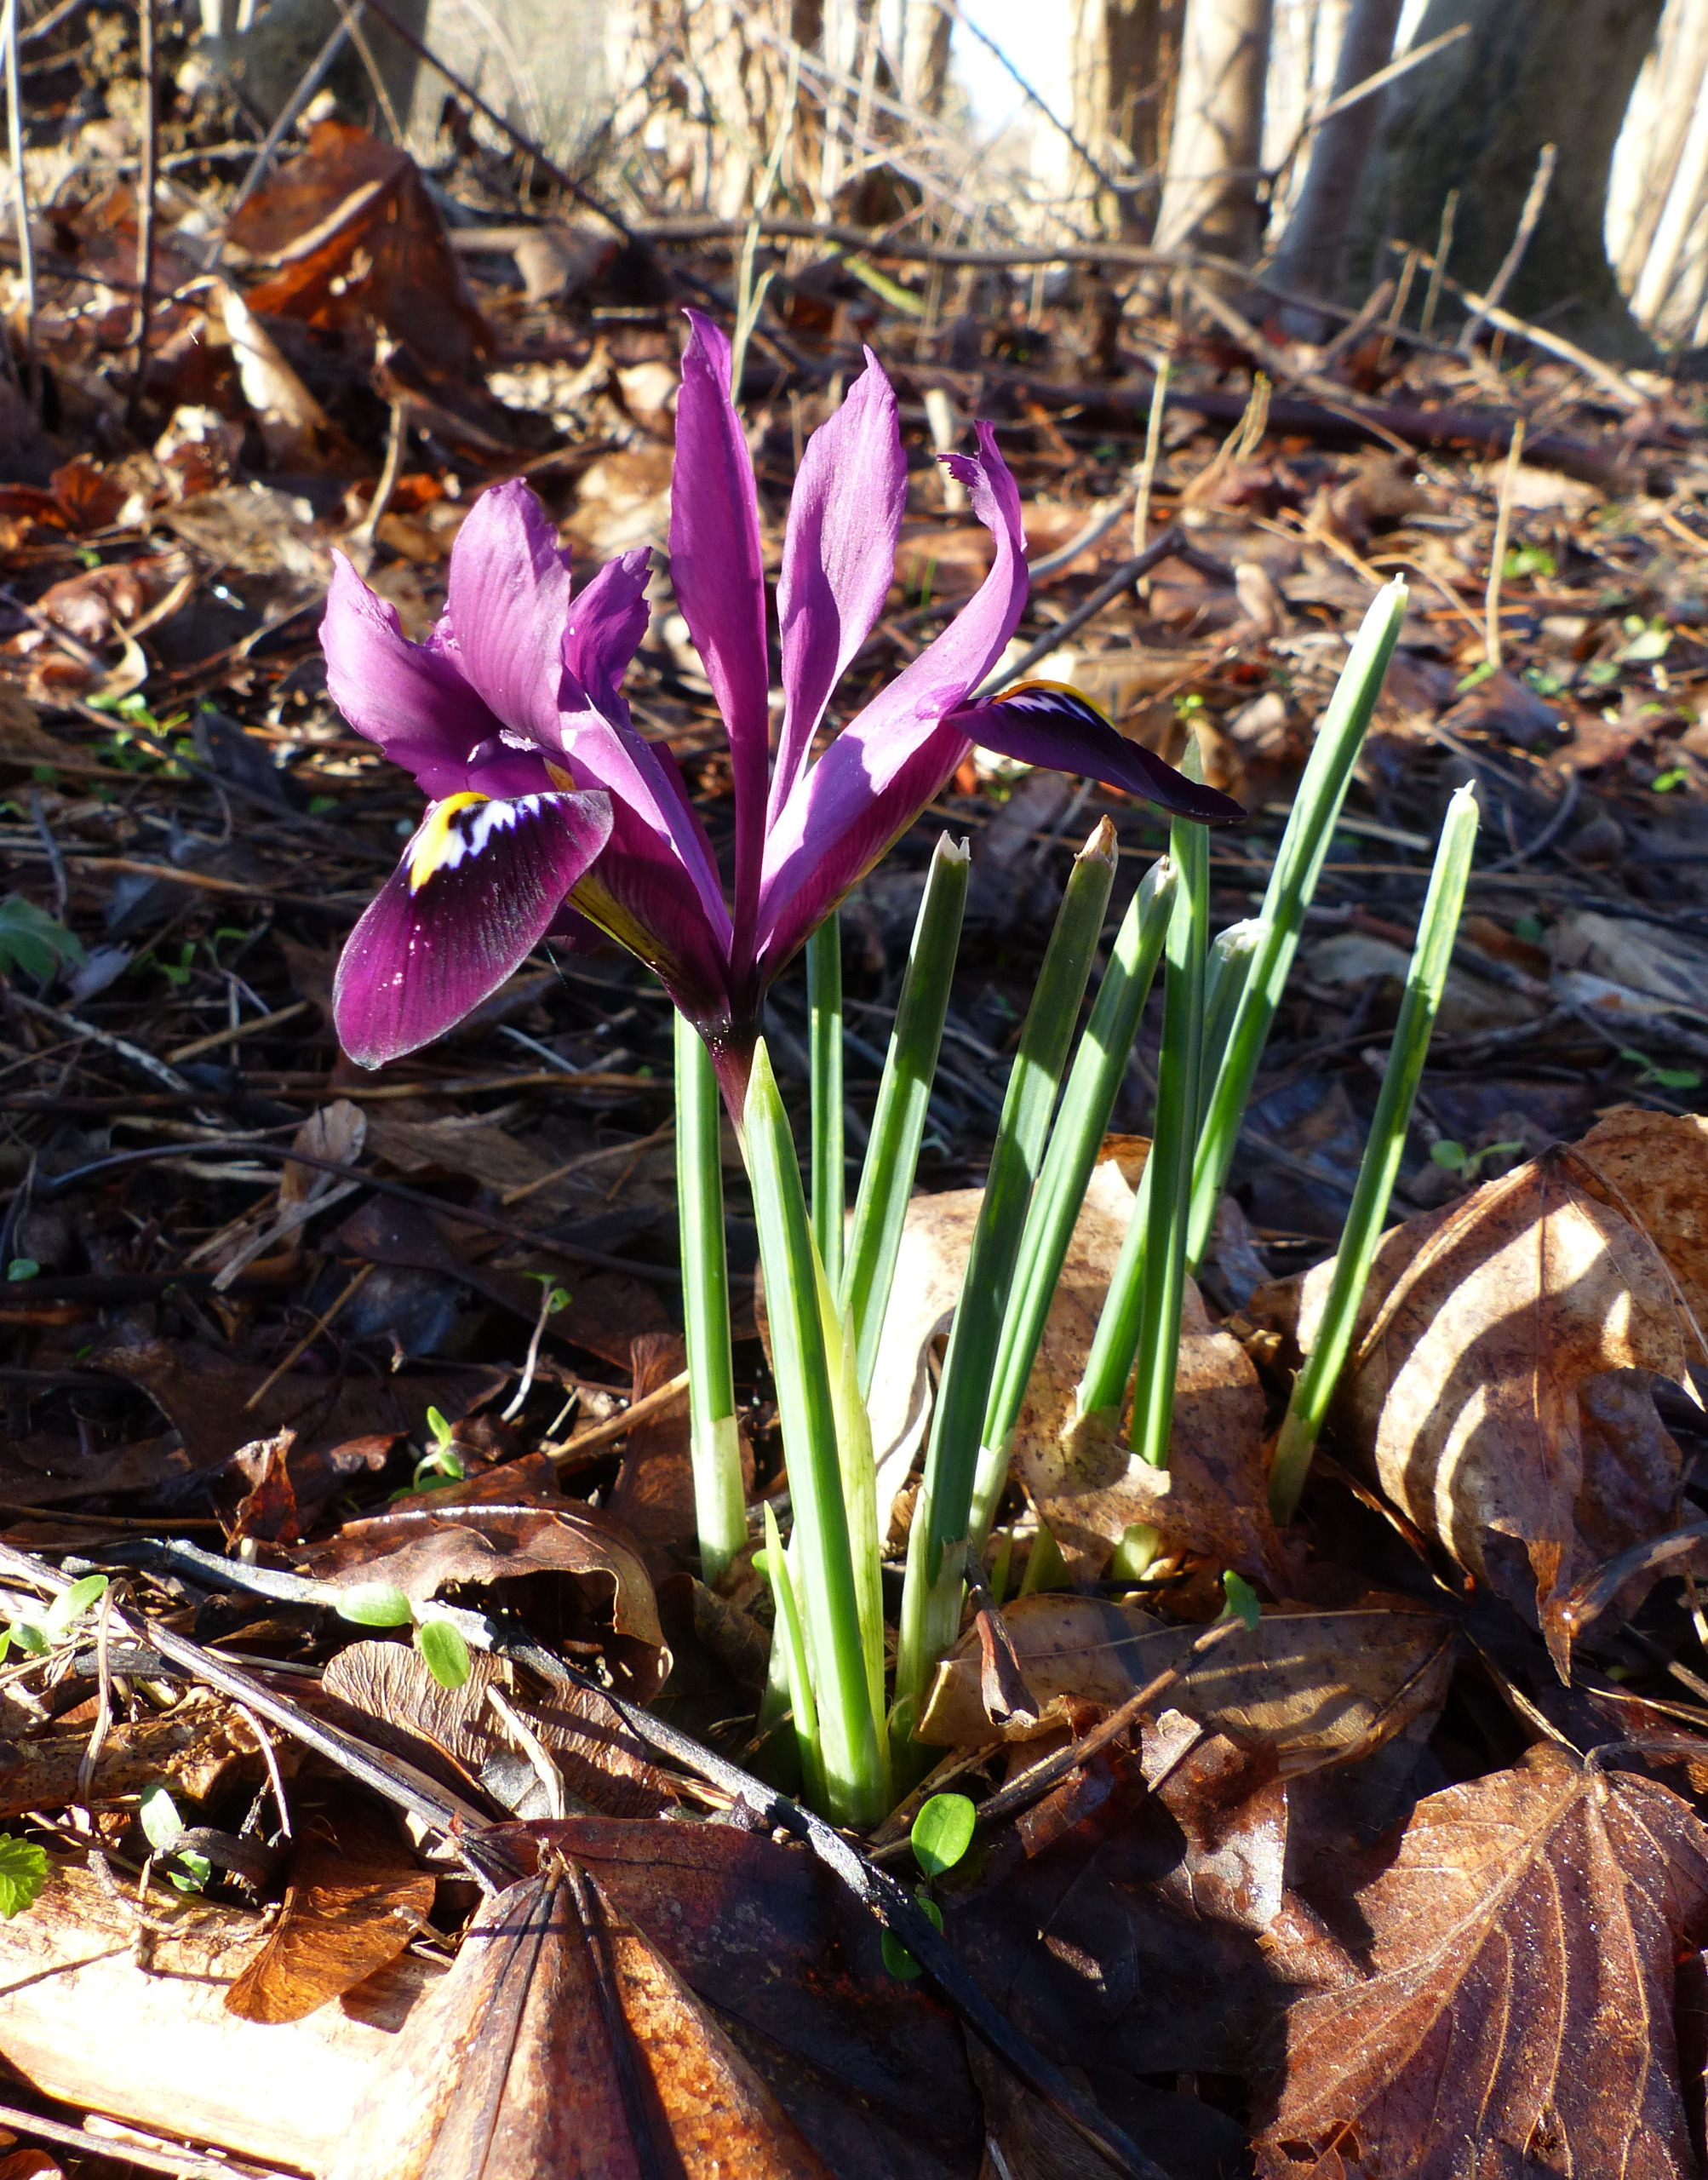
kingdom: Plantae
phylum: Tracheophyta
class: Liliopsida
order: Asparagales
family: Iridaceae
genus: Iris
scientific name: Iris reticulata
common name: Vår-iris
